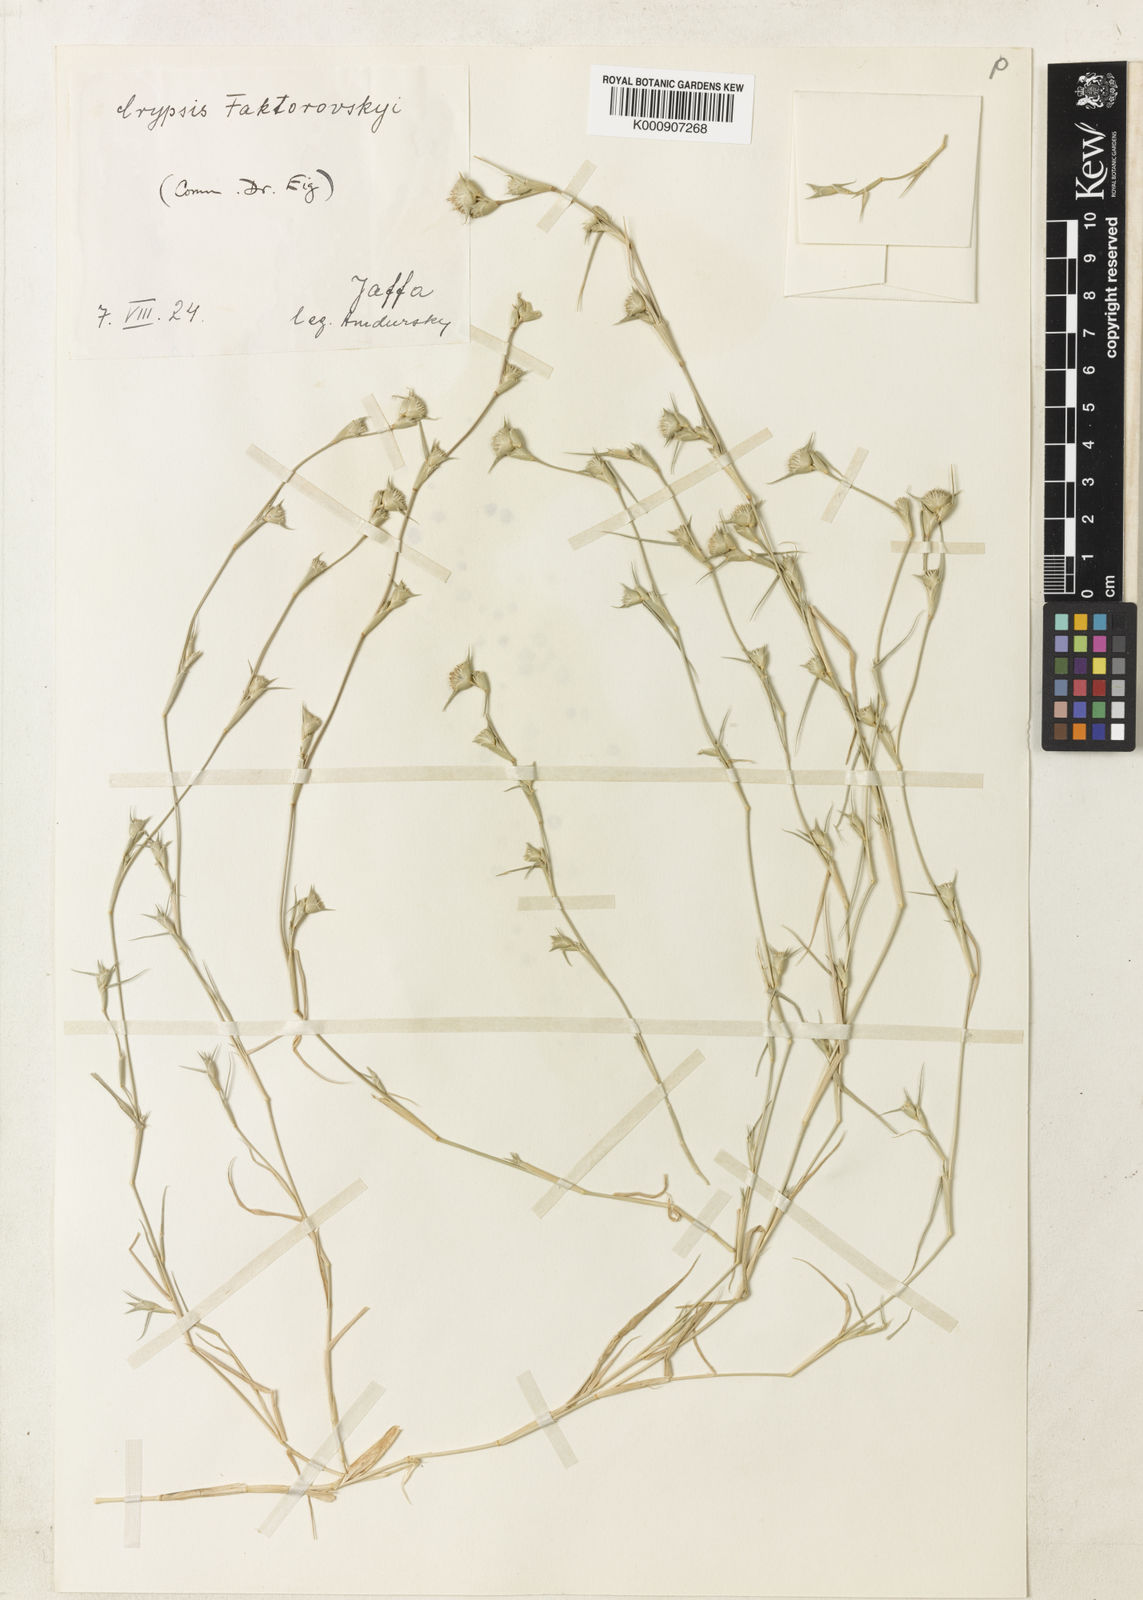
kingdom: Plantae
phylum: Tracheophyta
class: Liliopsida
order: Poales
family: Poaceae
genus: Sporobolus
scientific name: Sporobolus factorovskyi
